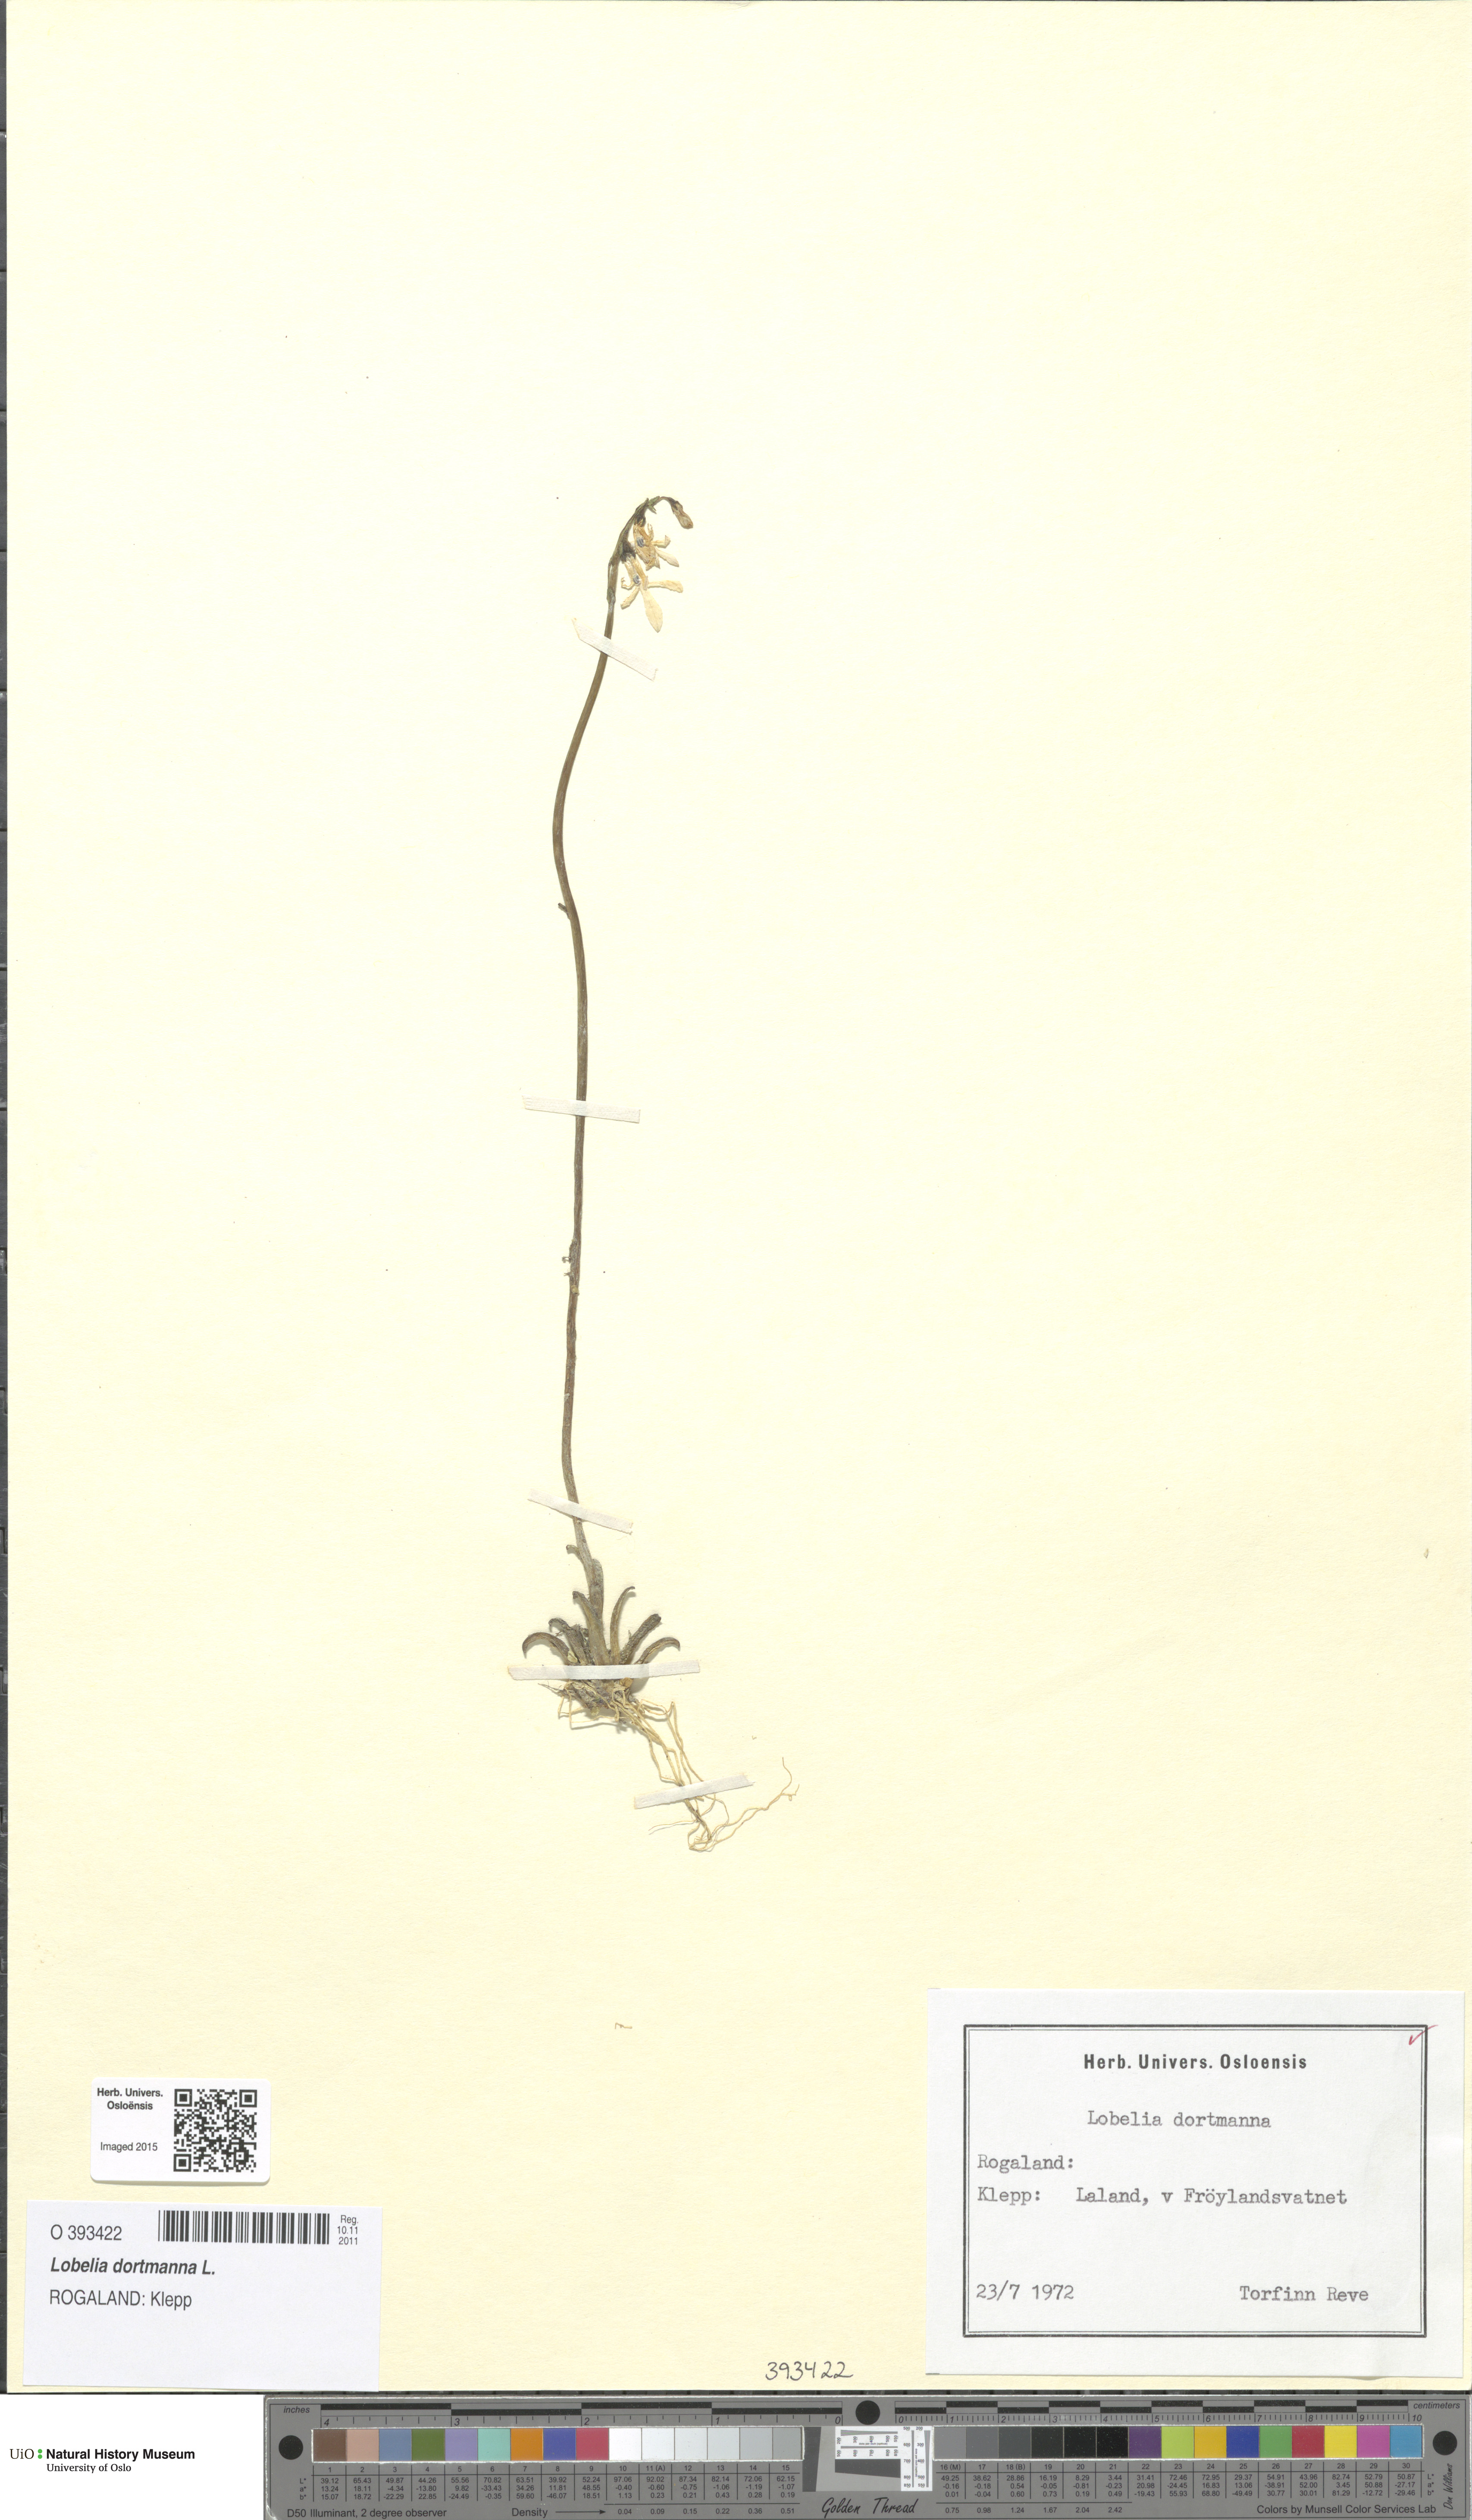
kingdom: Plantae
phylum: Tracheophyta
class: Magnoliopsida
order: Asterales
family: Campanulaceae
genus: Lobelia
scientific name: Lobelia dortmanna
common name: Water lobelia
